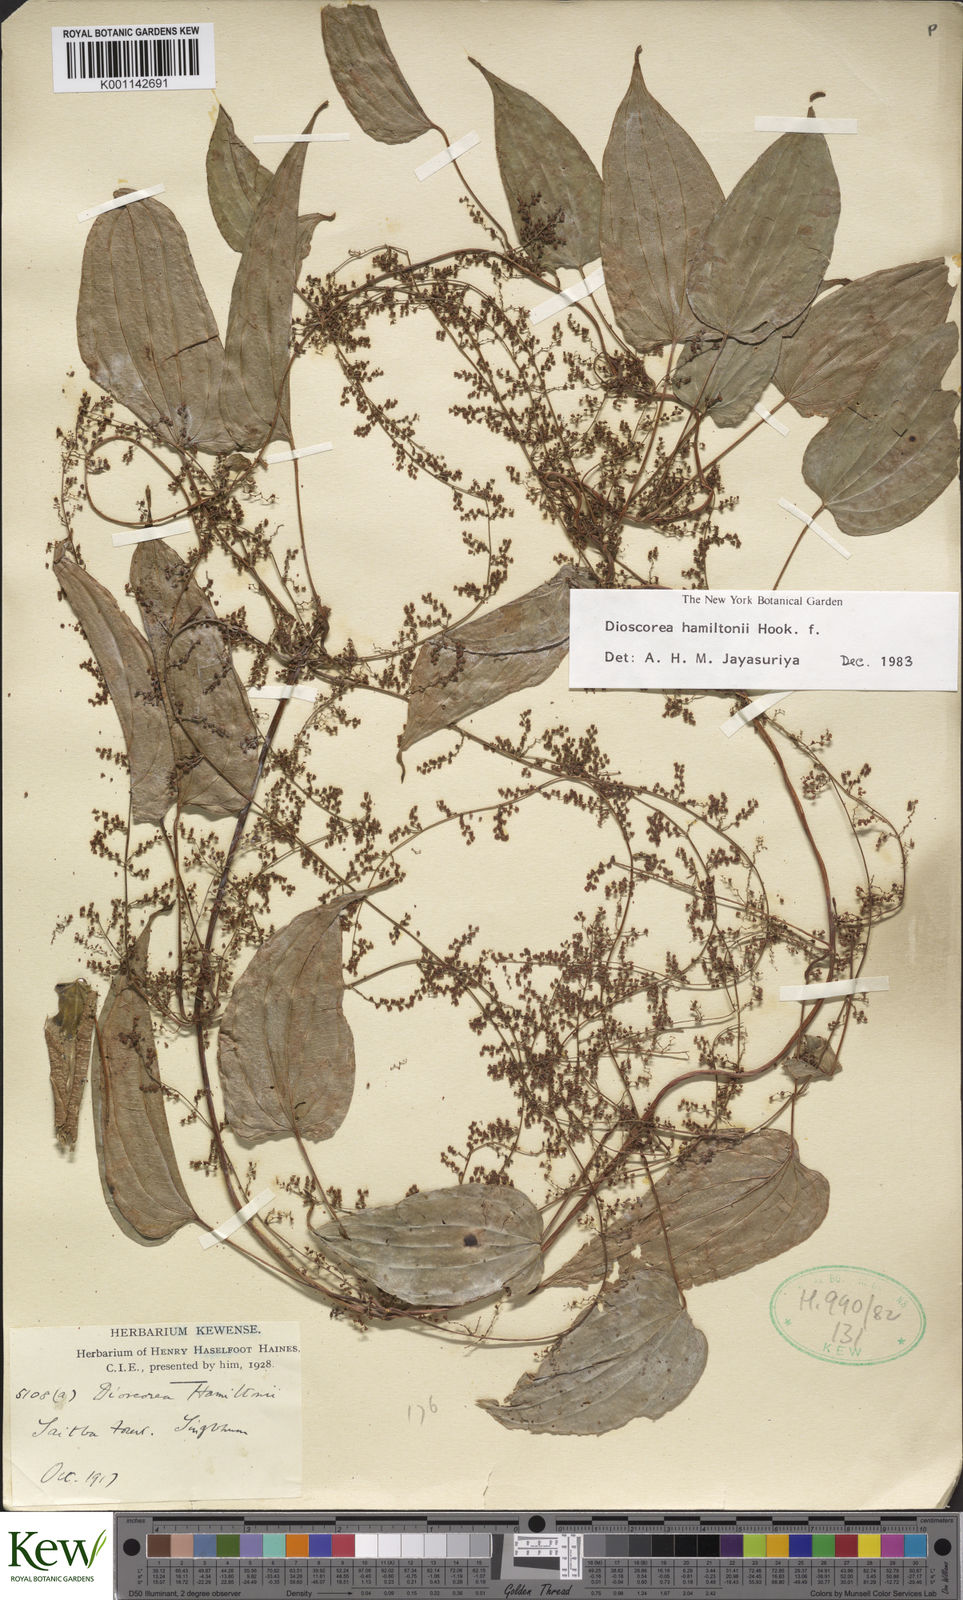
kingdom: Plantae
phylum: Tracheophyta
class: Liliopsida
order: Dioscoreales
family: Dioscoreaceae
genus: Dioscorea
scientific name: Dioscorea
